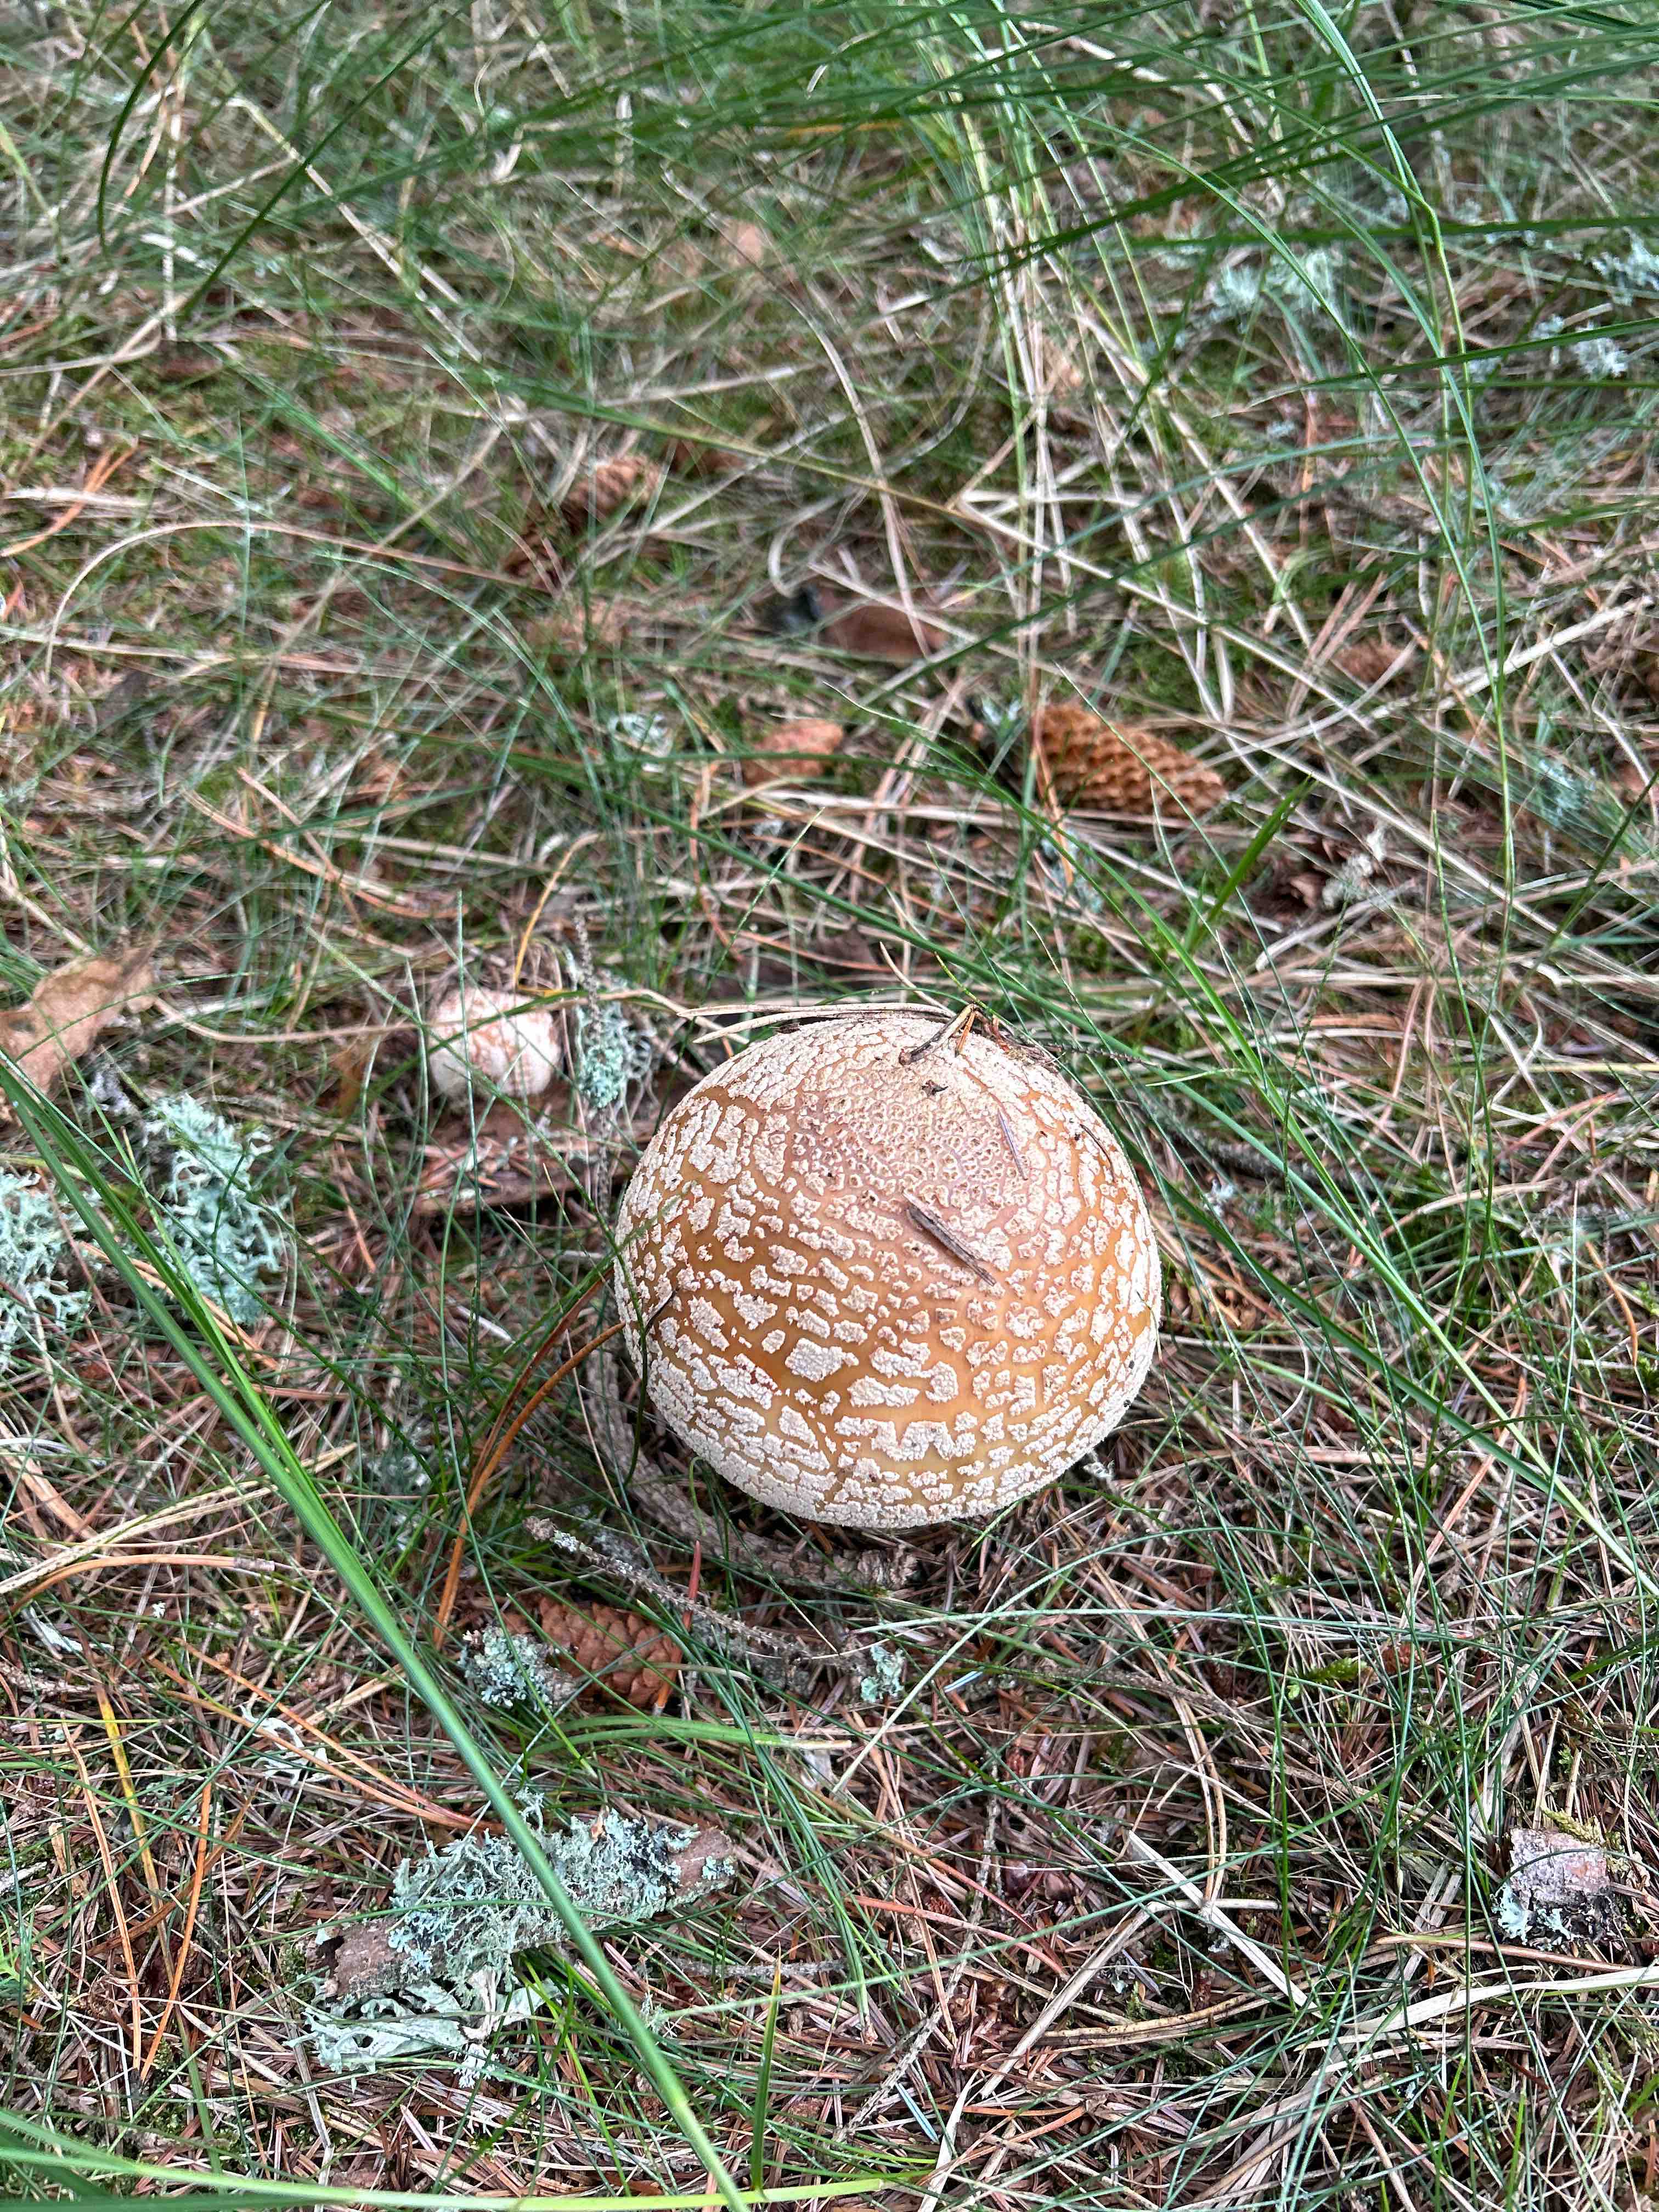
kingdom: Fungi
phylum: Basidiomycota
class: Agaricomycetes
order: Agaricales
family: Amanitaceae
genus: Amanita
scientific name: Amanita rubescens
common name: rødmende fluesvamp
